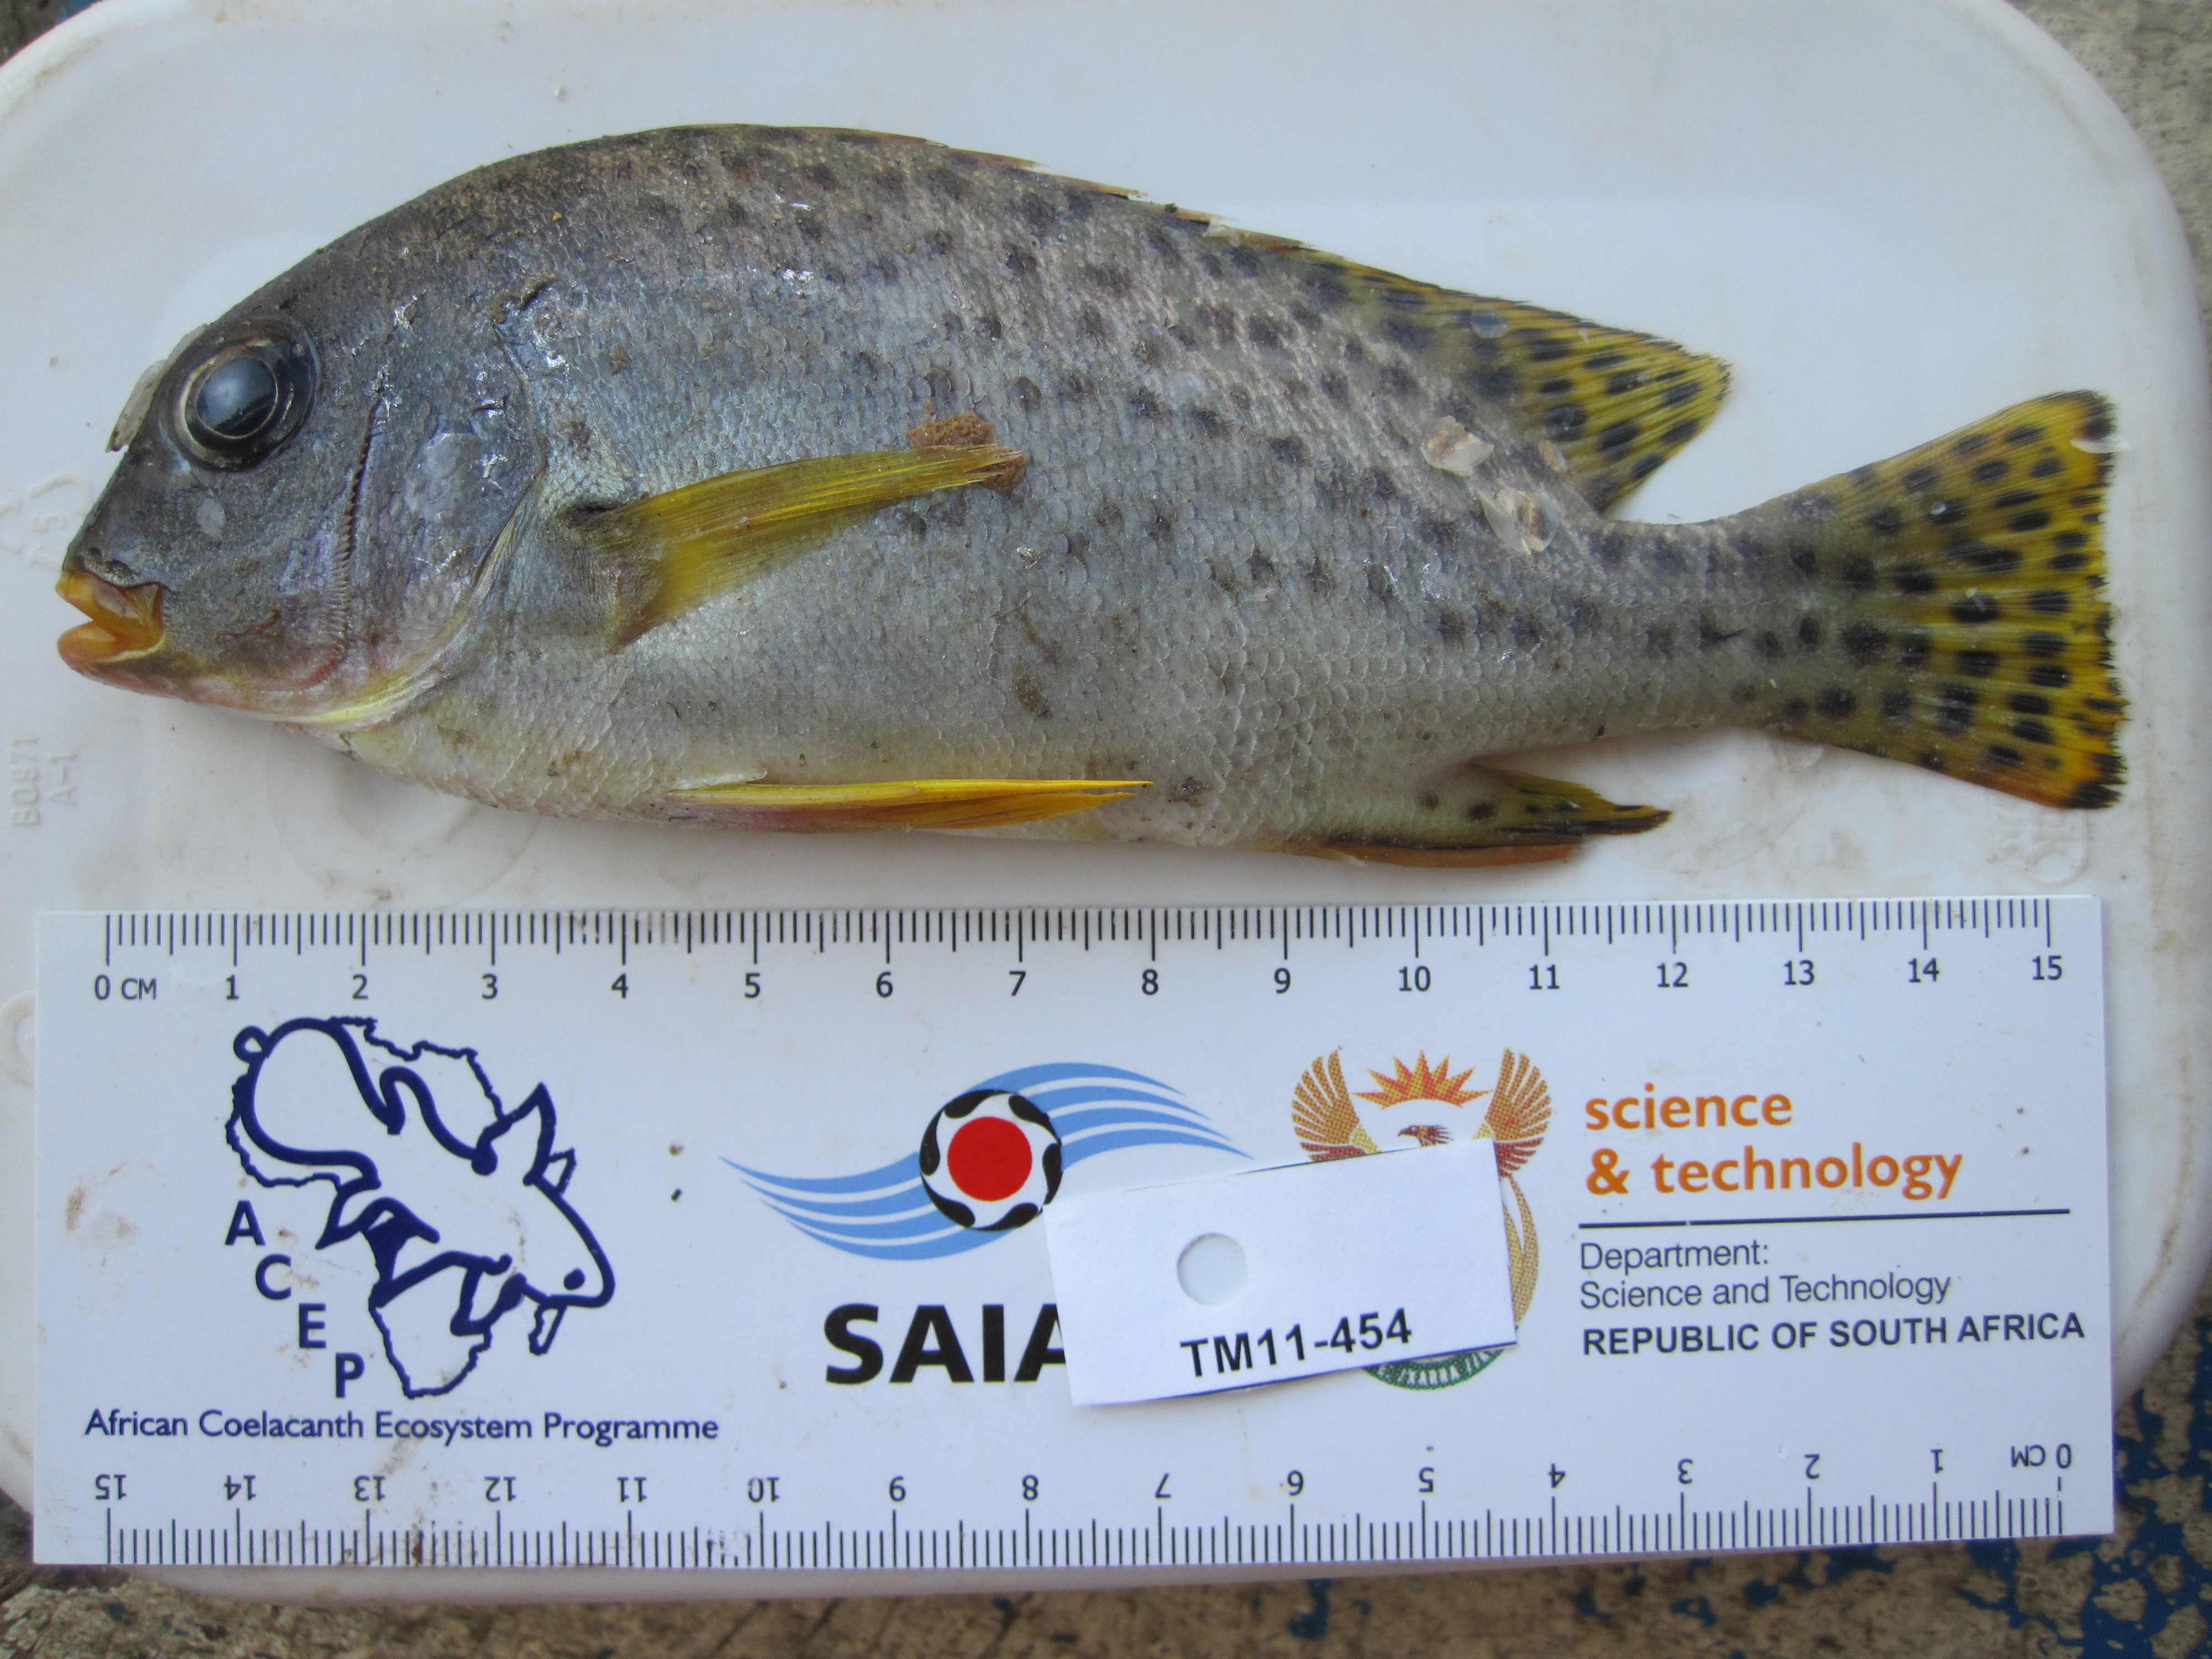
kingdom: Animalia
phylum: Chordata
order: Perciformes
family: Haemulidae
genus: Plectorhinchus
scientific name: Plectorhinchus gaterinus
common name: Blackspotted rubberlip
